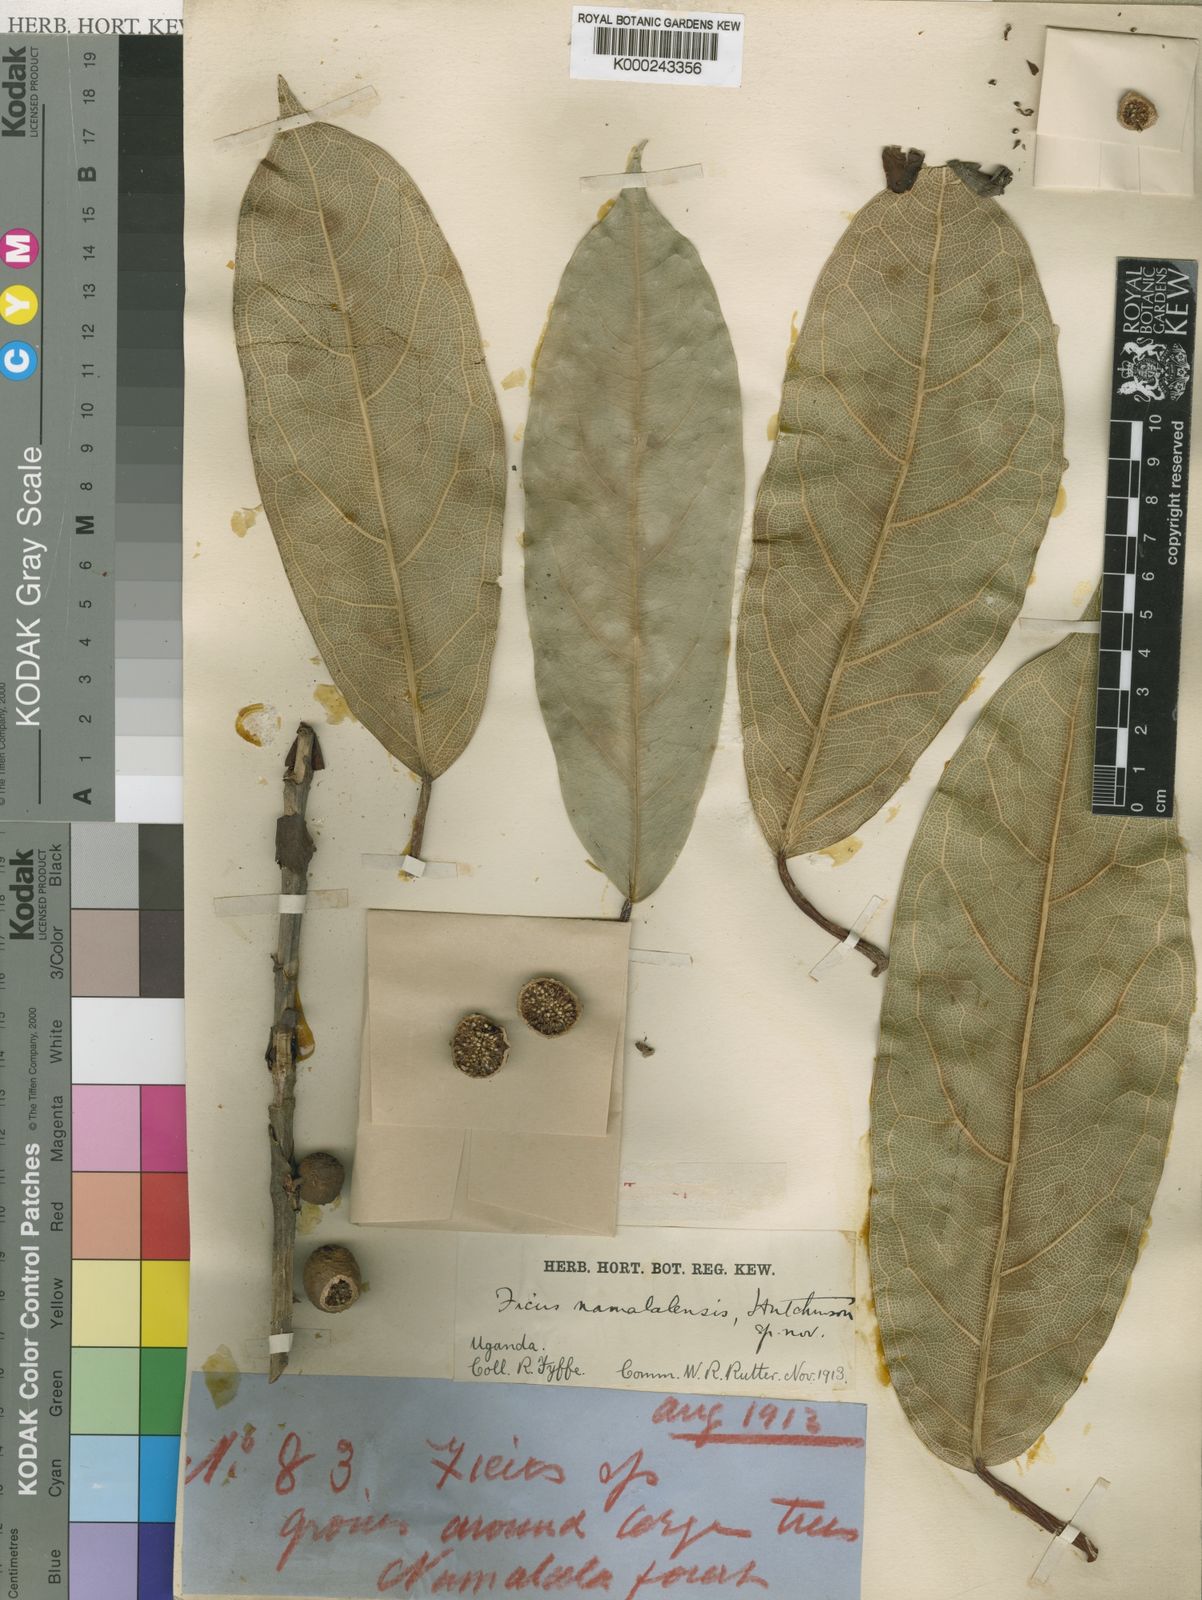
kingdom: Plantae
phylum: Tracheophyta
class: Magnoliopsida
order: Rosales
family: Moraceae
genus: Ficus
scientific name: Ficus
